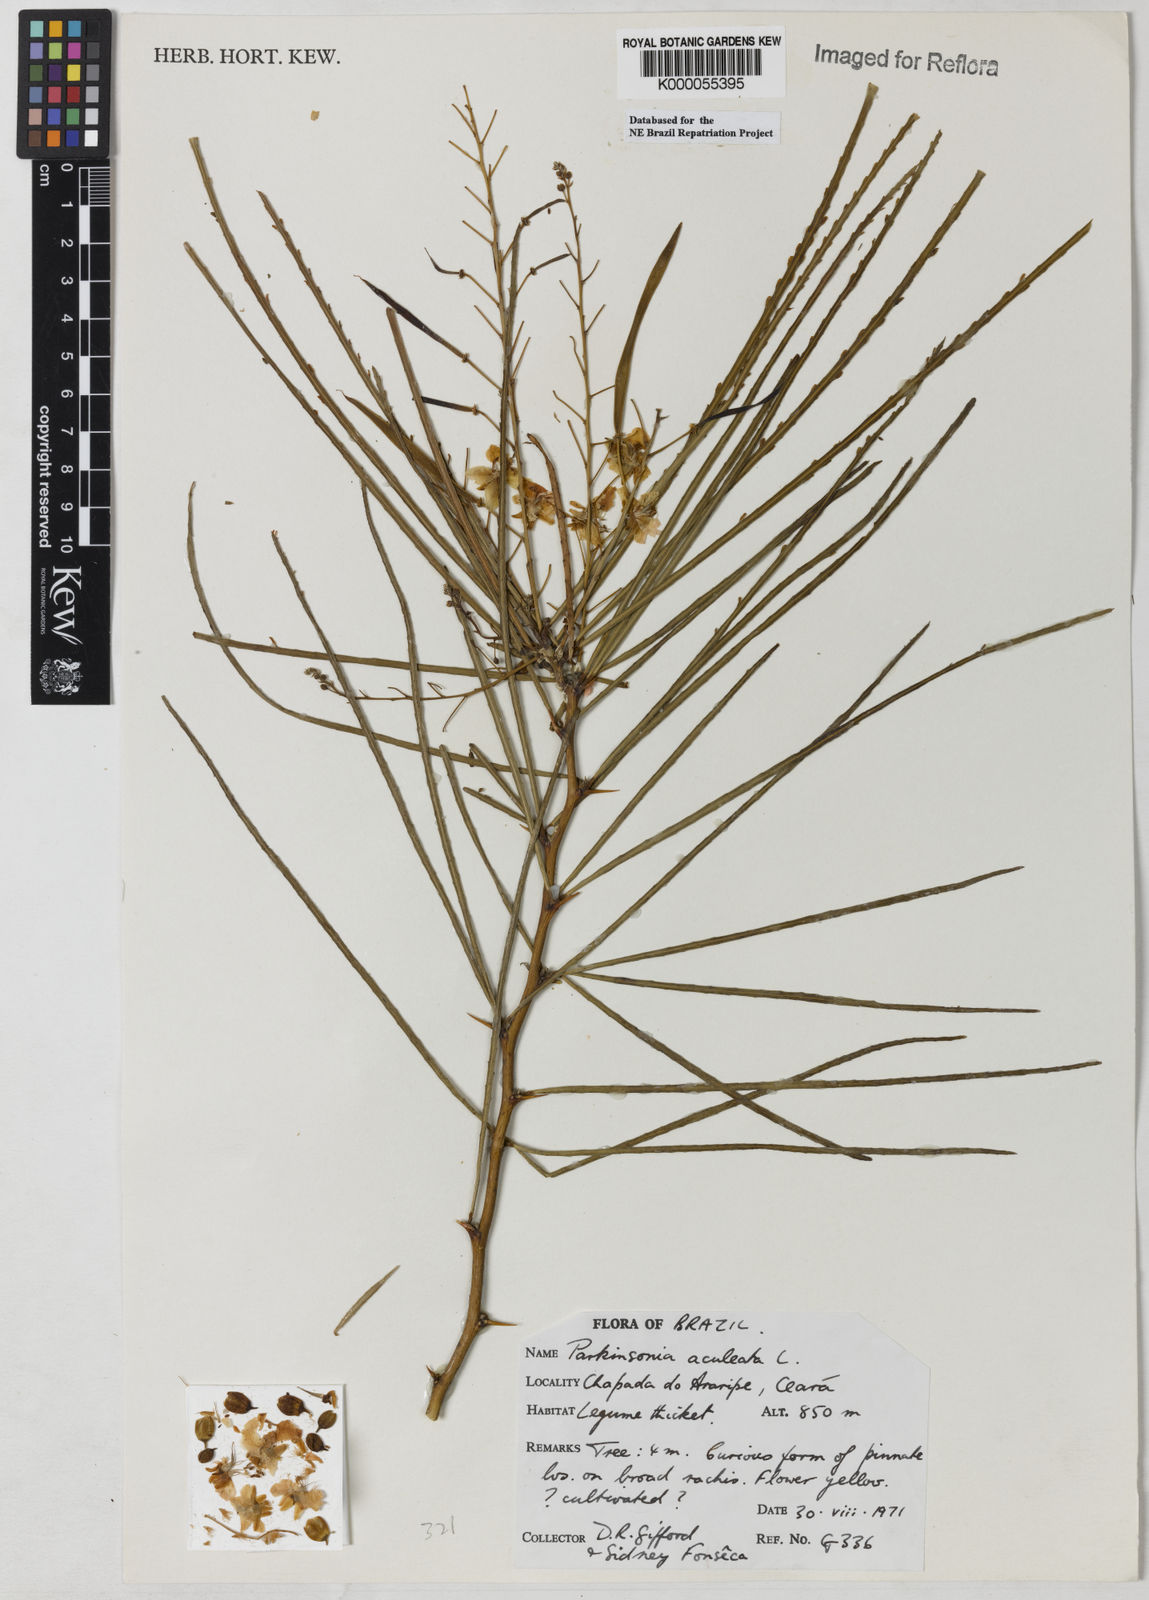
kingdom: Plantae
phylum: Tracheophyta
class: Magnoliopsida
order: Fabales
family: Fabaceae
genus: Parkinsonia
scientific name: Parkinsonia aculeata
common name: Jerusalem thorn
